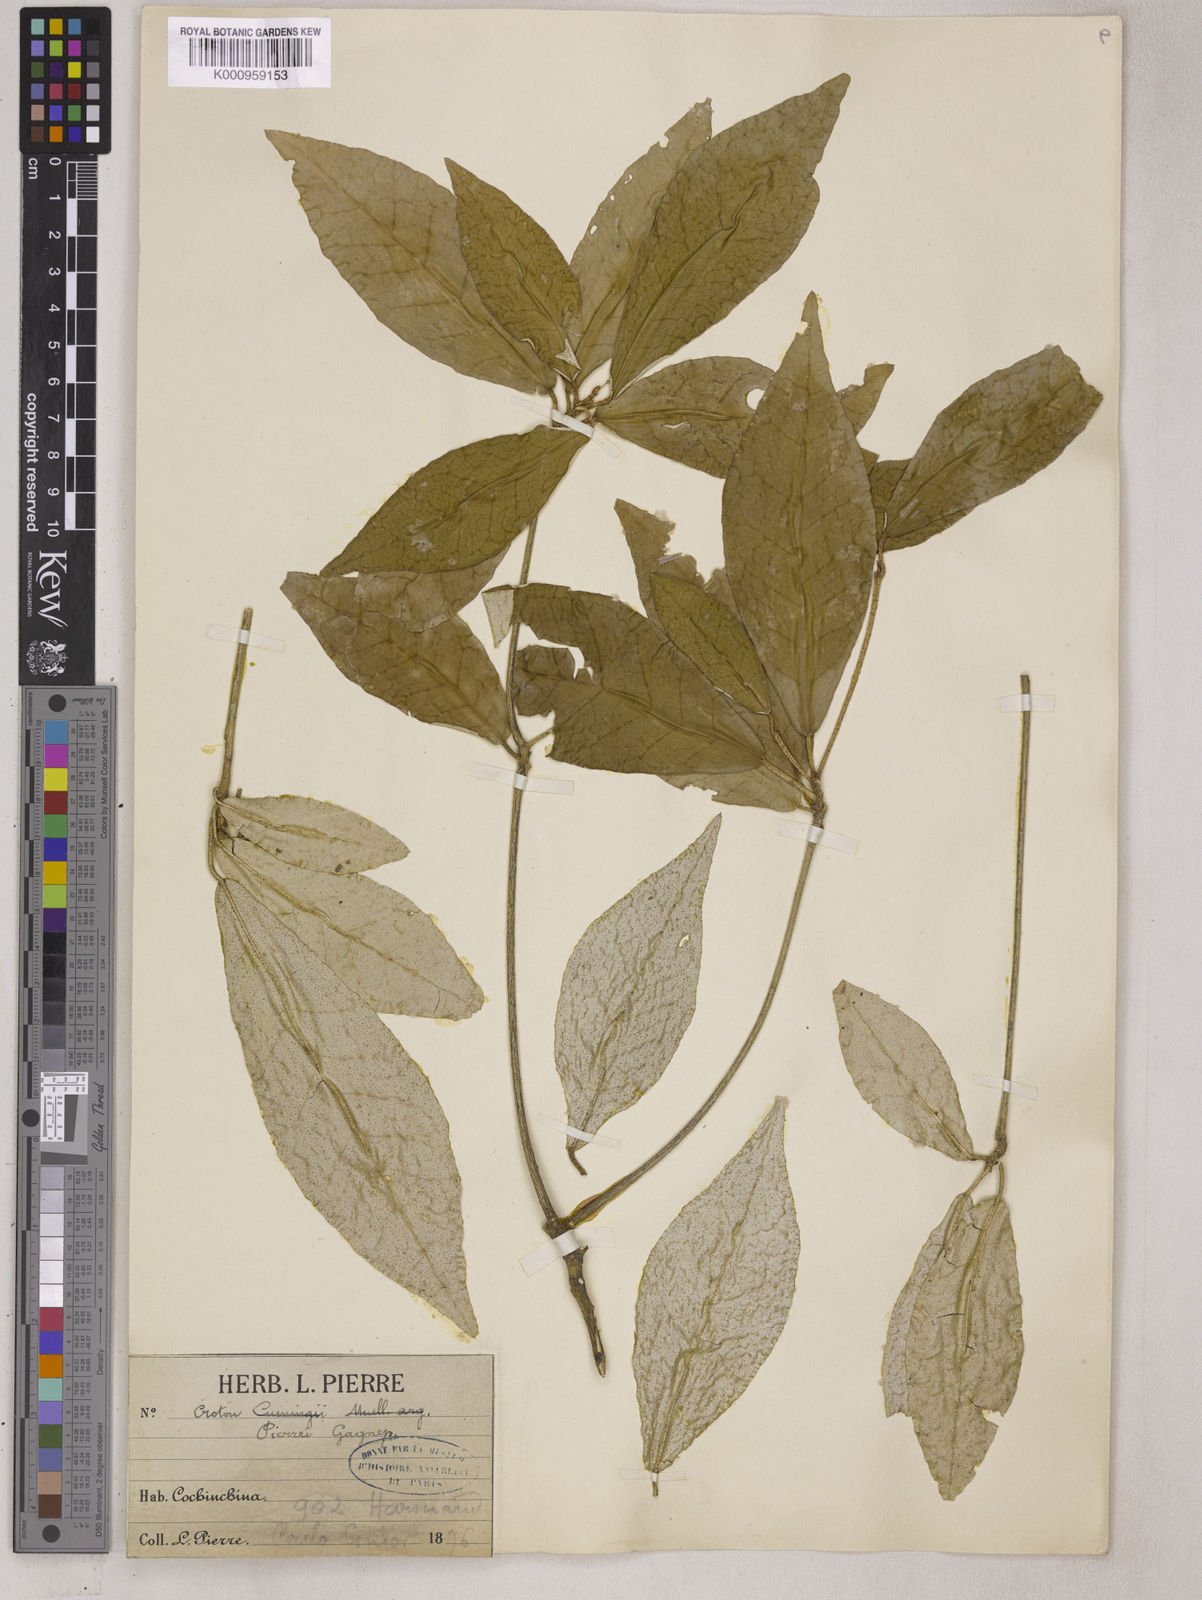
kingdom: Plantae
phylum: Tracheophyta
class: Magnoliopsida
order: Malpighiales
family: Euphorbiaceae
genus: Croton
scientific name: Croton eluteria
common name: Seaside balsam
